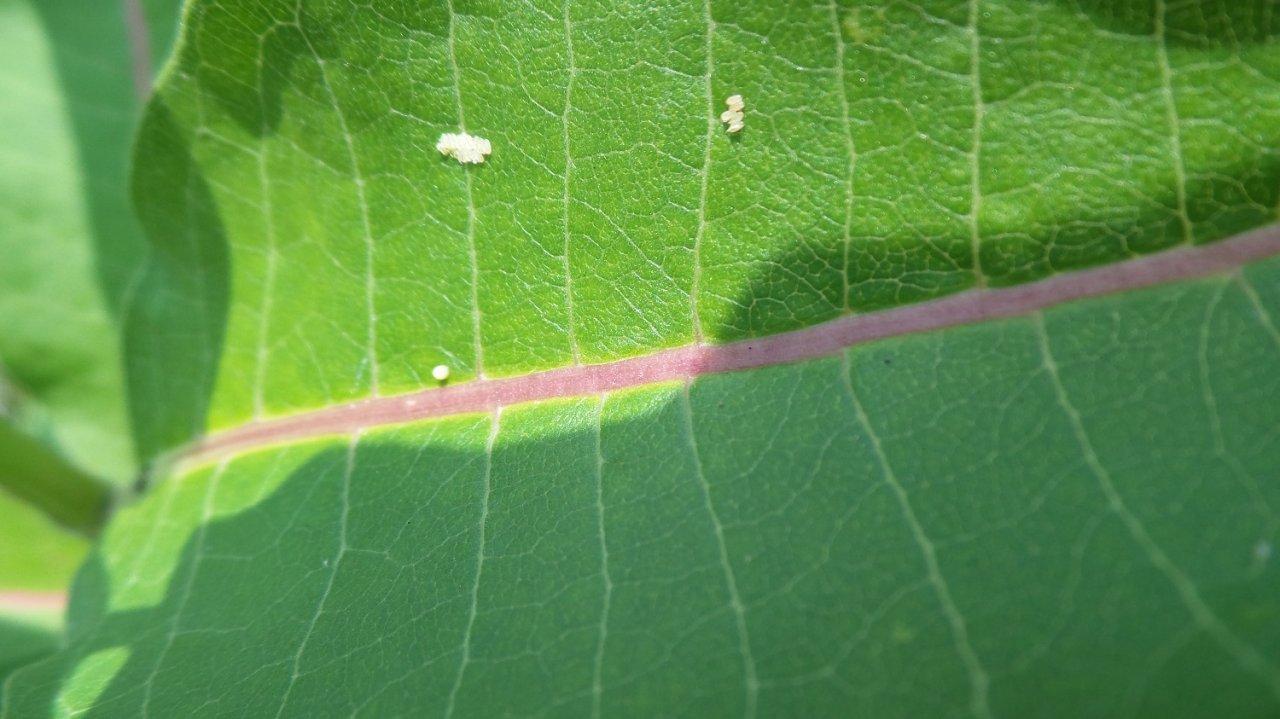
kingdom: Animalia
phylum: Arthropoda
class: Insecta
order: Lepidoptera
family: Nymphalidae
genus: Danaus
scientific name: Danaus plexippus
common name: Monarch
